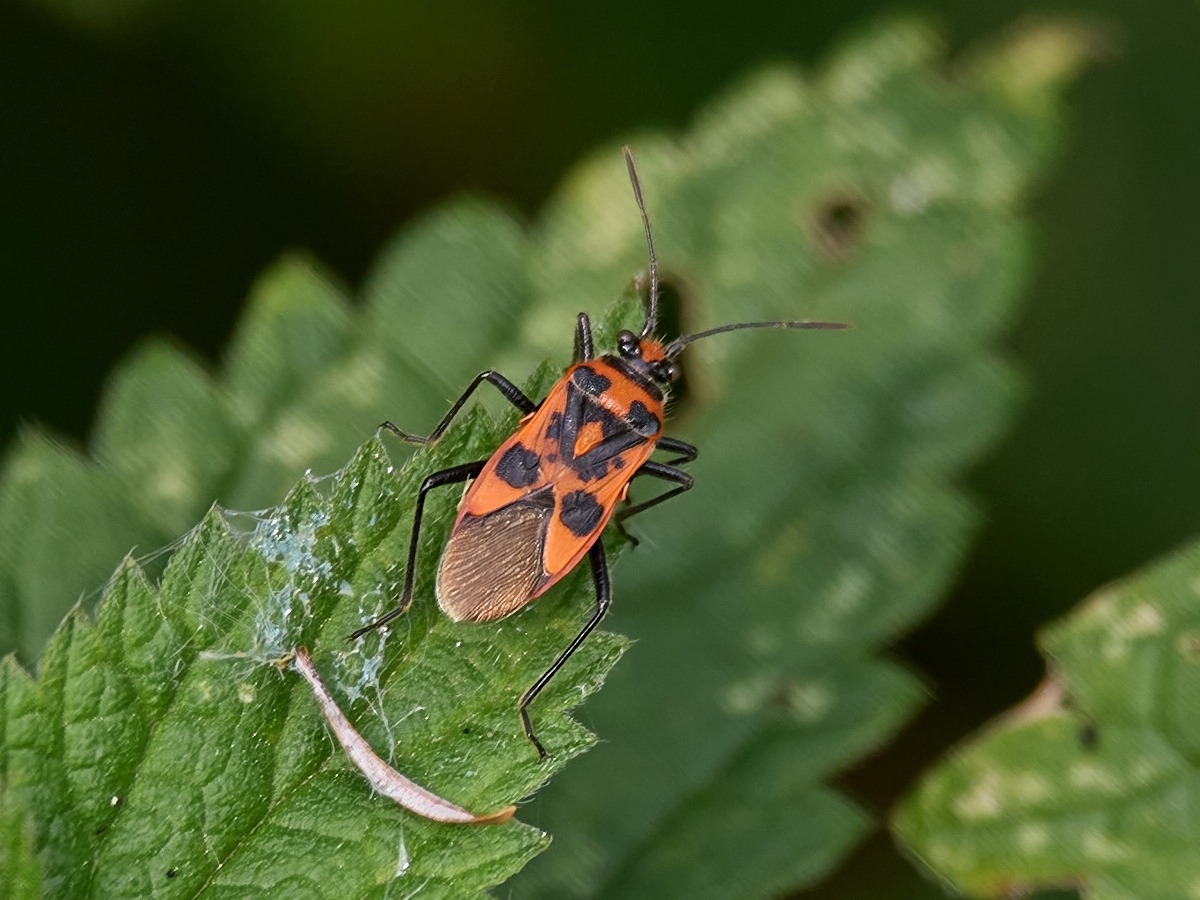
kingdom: Animalia
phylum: Arthropoda
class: Insecta
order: Hemiptera
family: Rhopalidae
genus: Corizus
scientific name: Corizus hyoscyami
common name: Rød kanttæge
